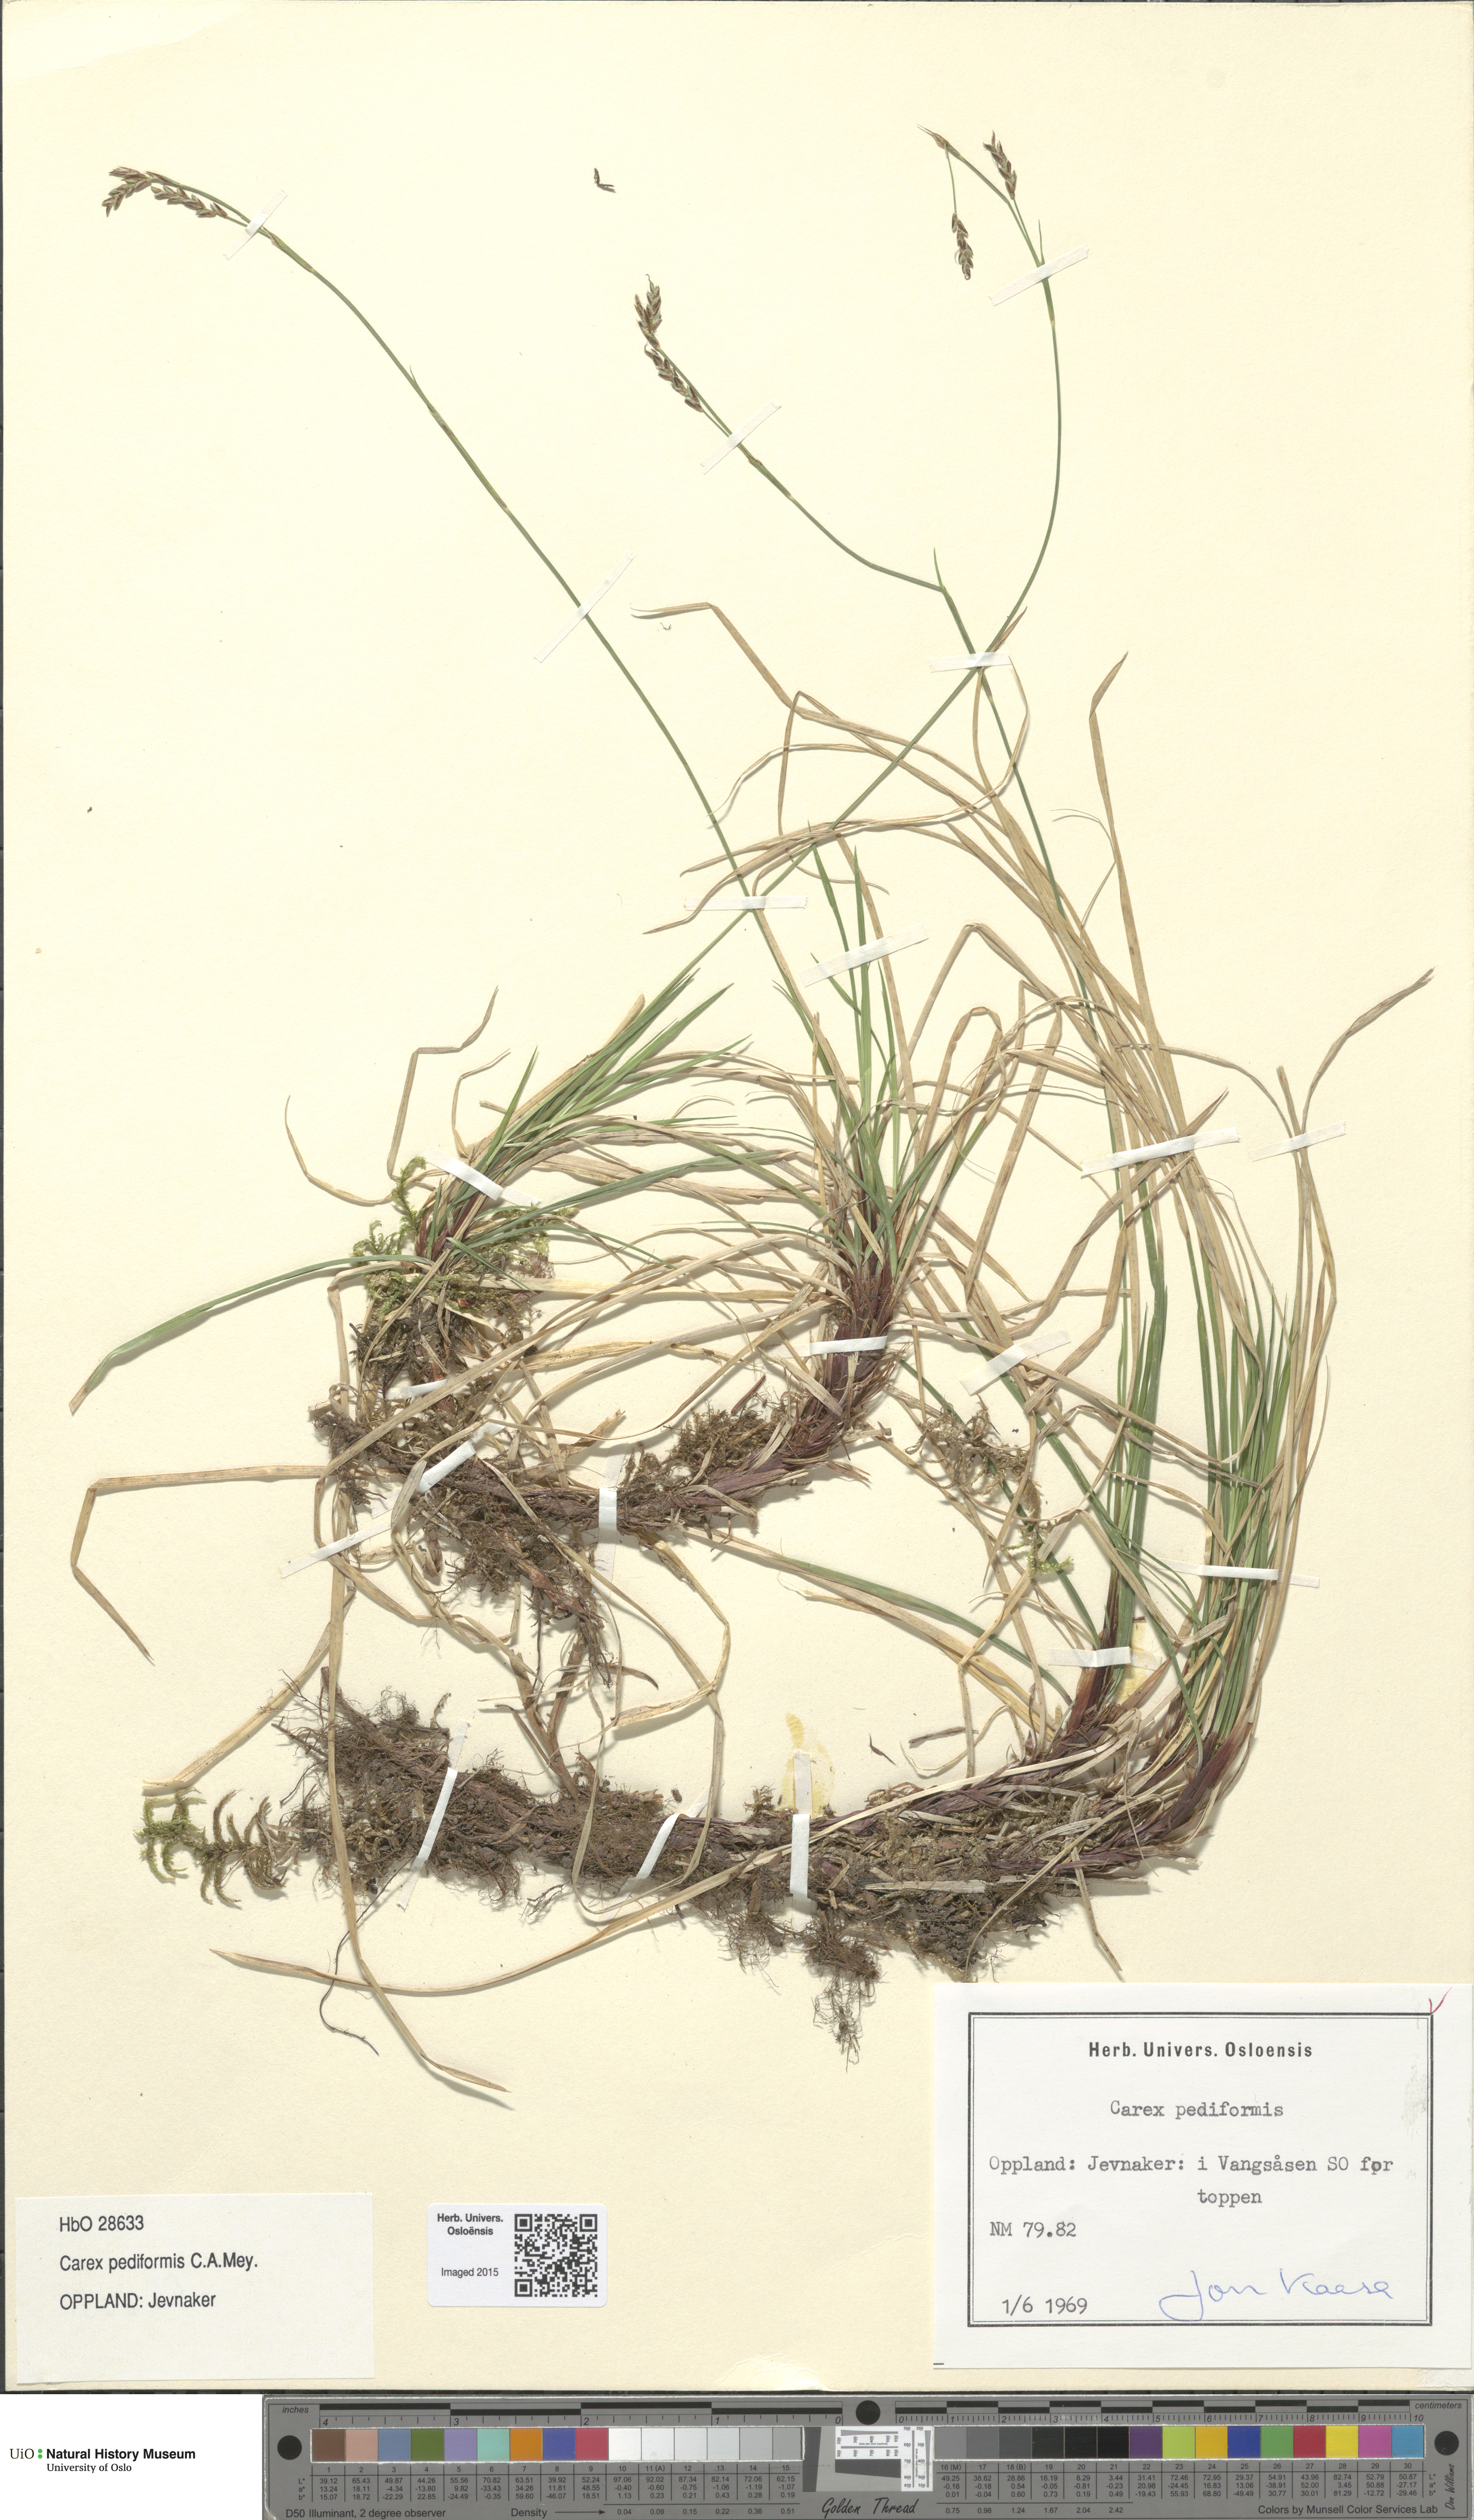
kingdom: Plantae
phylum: Tracheophyta
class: Liliopsida
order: Poales
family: Cyperaceae
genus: Carex
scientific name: Carex rhizina
